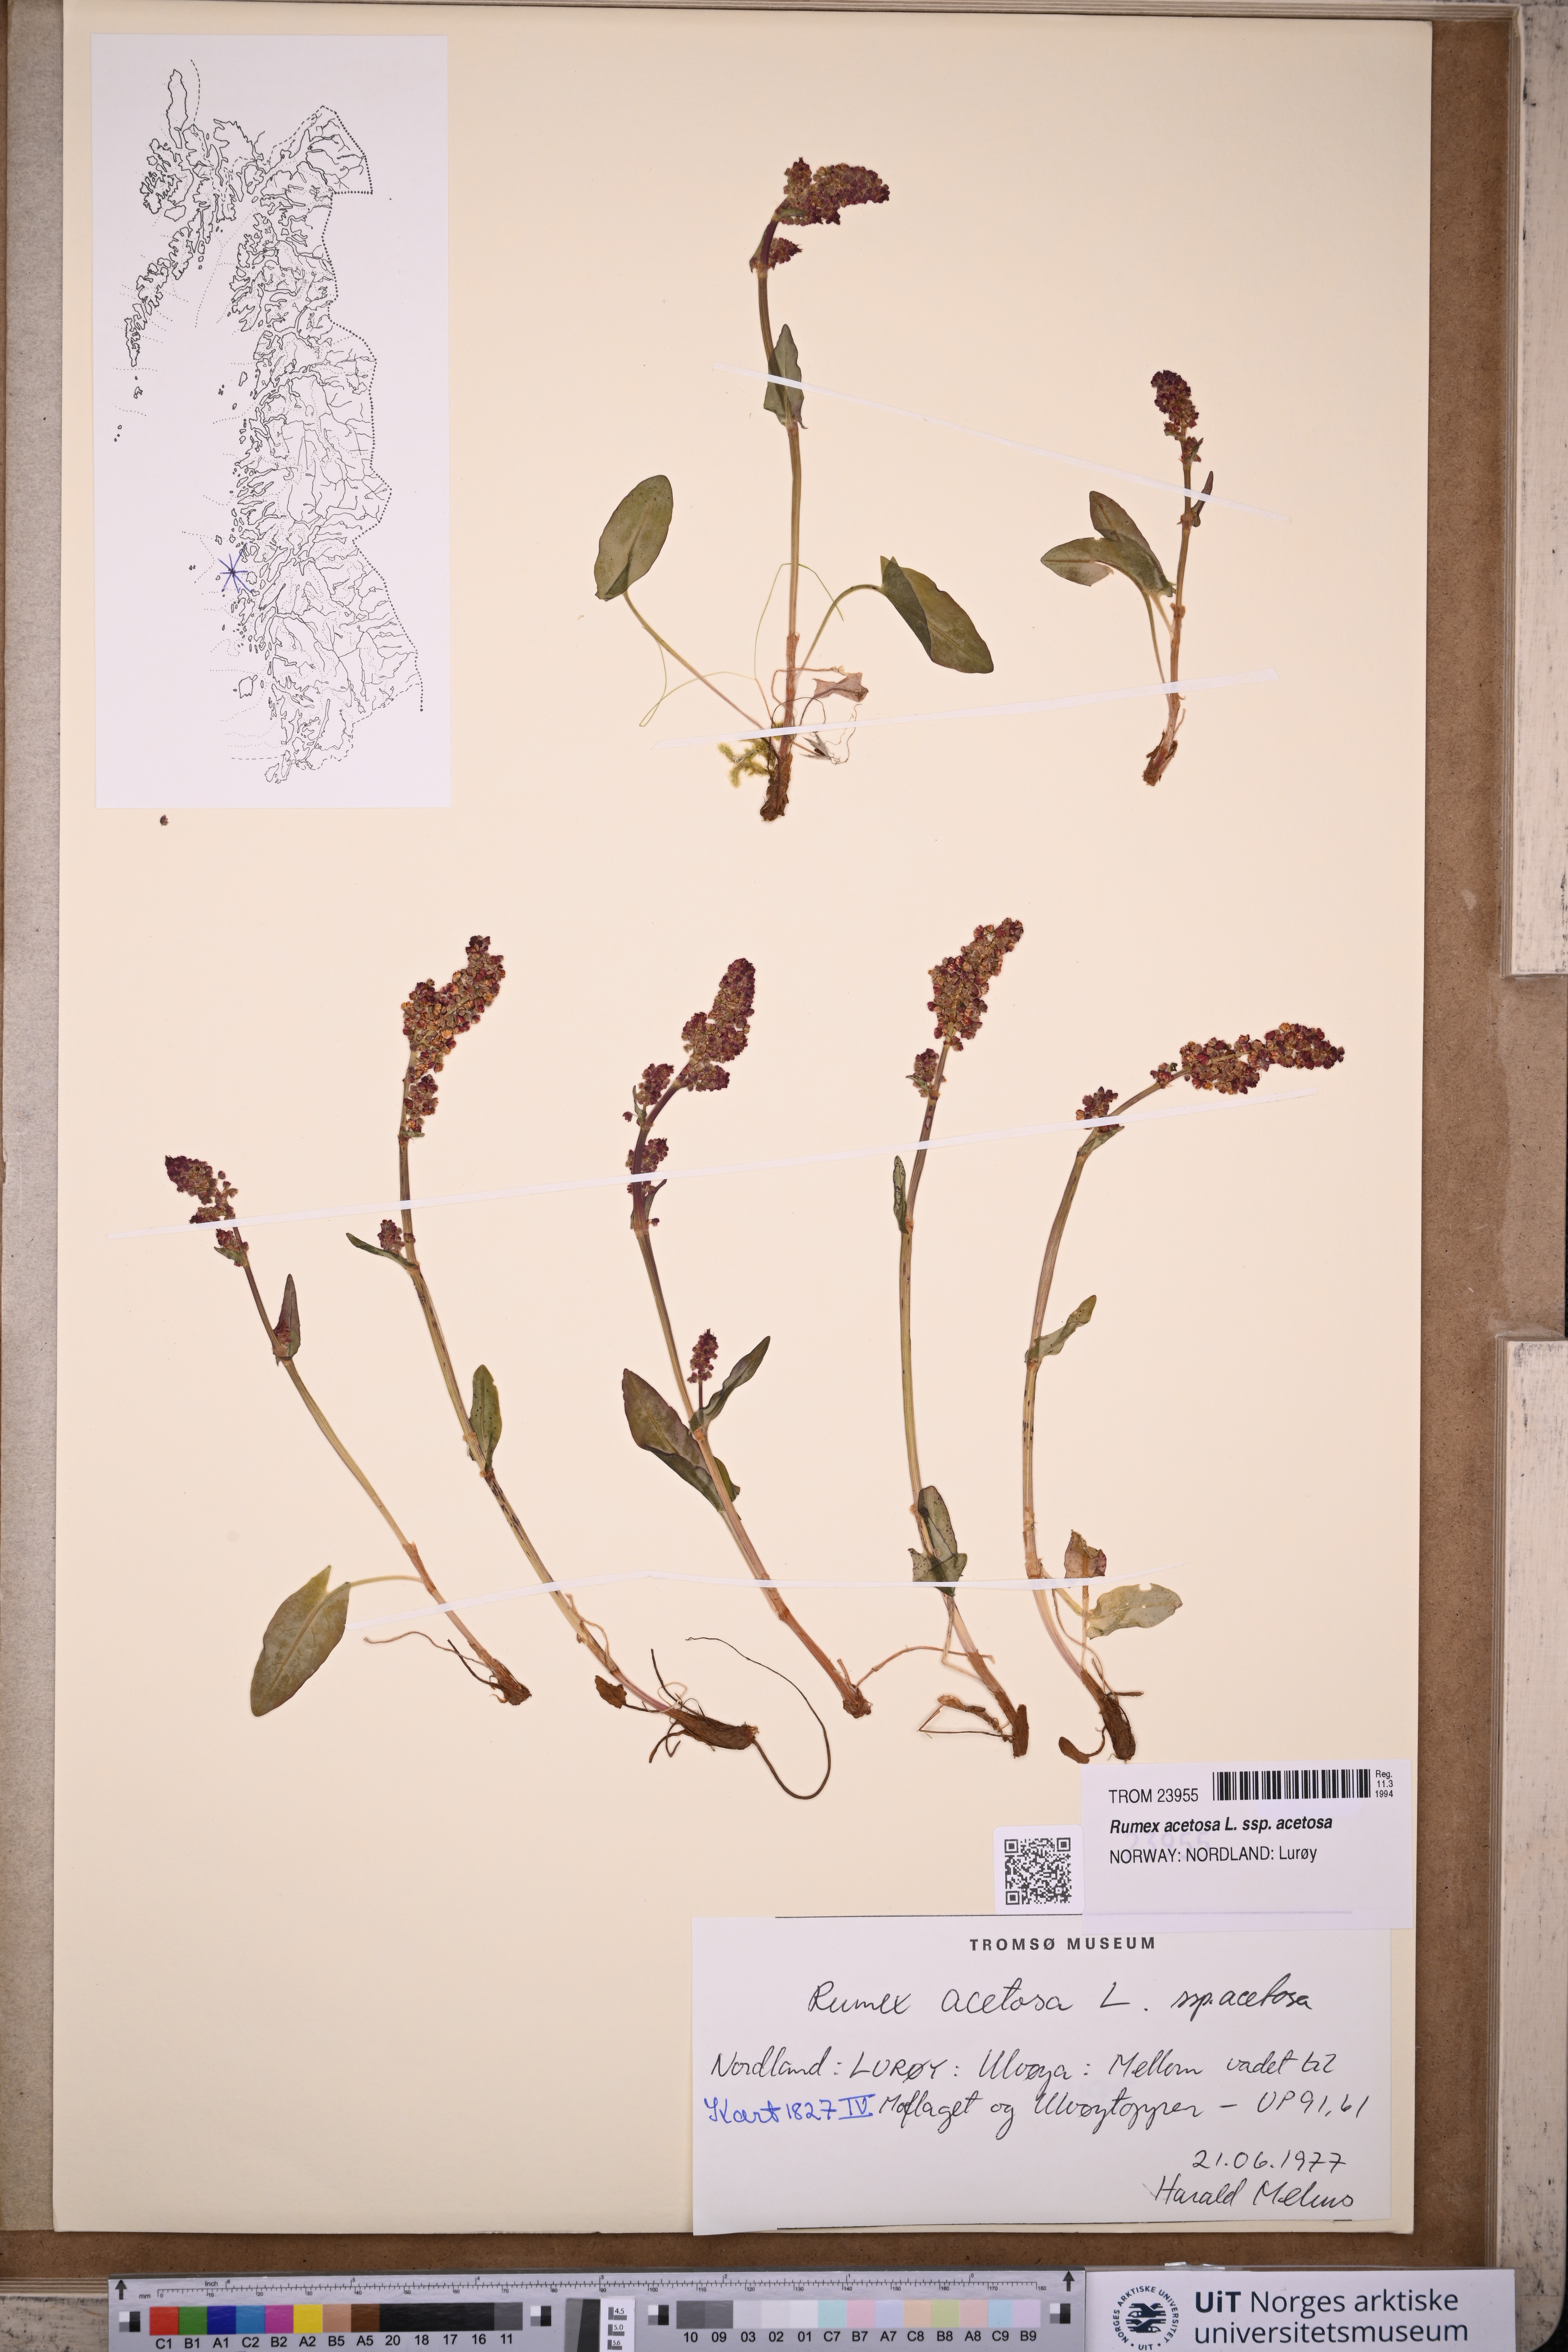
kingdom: Plantae
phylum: Tracheophyta
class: Magnoliopsida
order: Caryophyllales
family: Polygonaceae
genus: Rumex
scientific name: Rumex acetosa
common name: Garden sorrel
